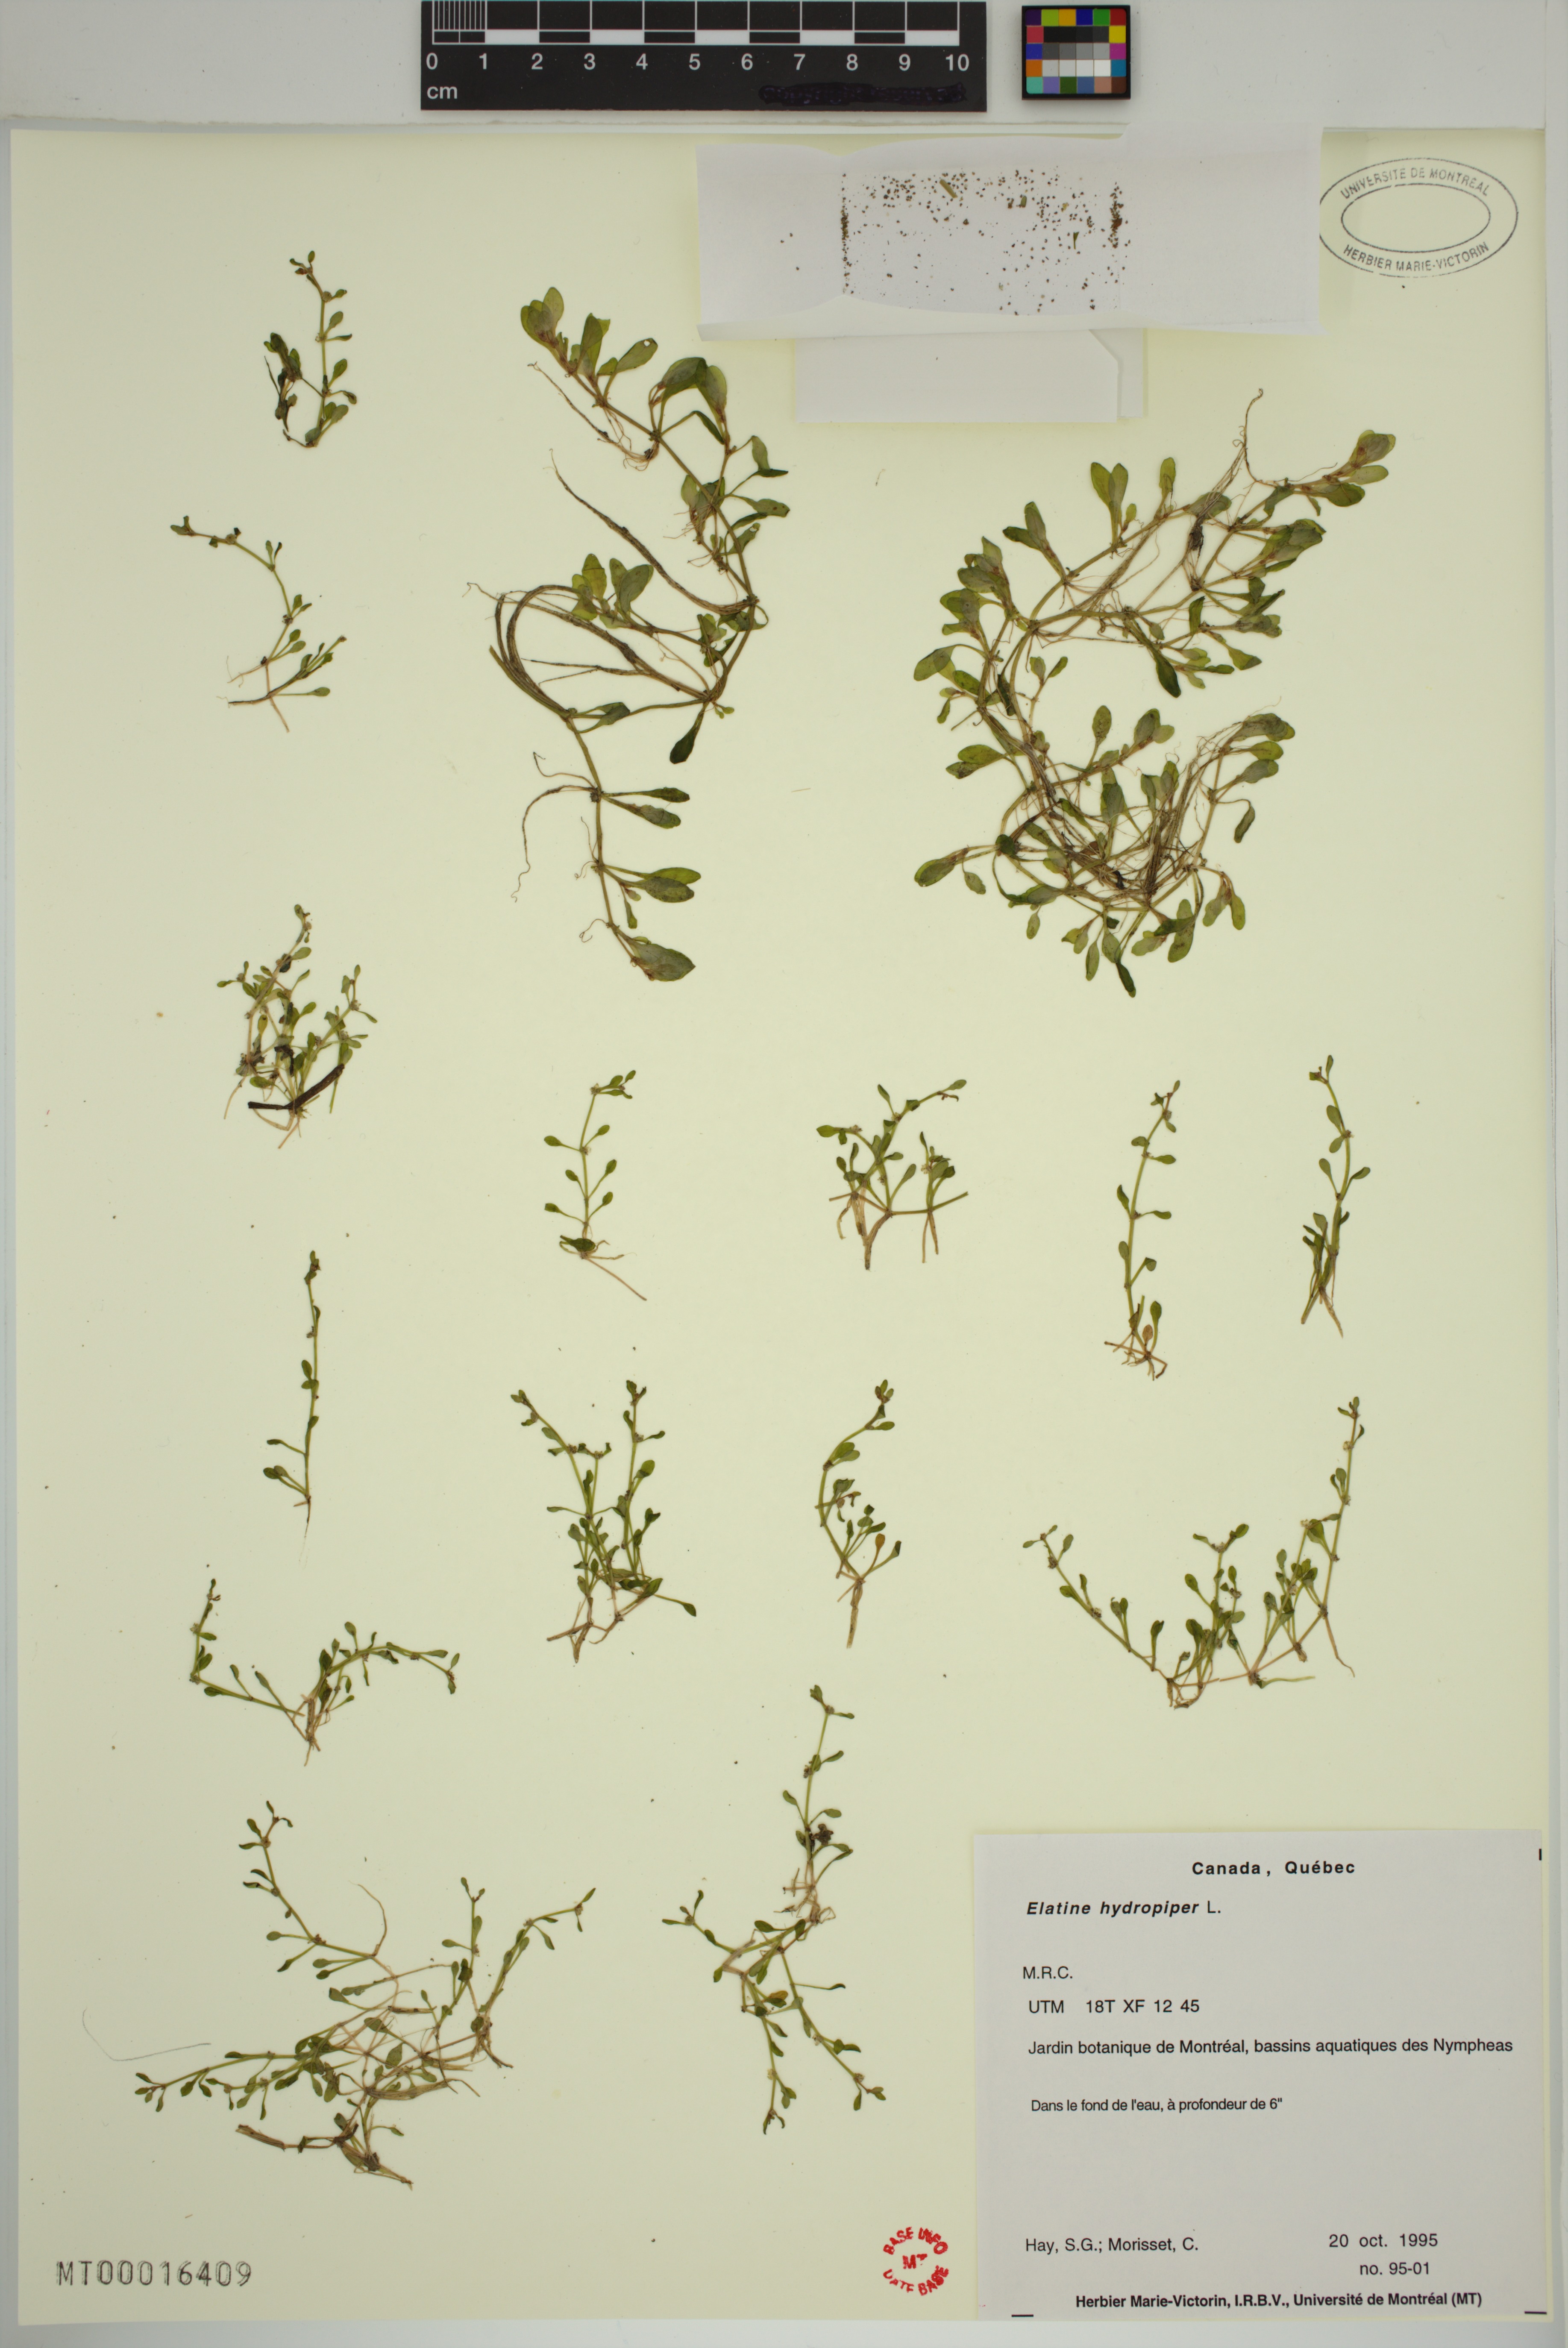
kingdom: Plantae
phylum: Tracheophyta
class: Magnoliopsida
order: Malpighiales
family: Elatinaceae
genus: Elatine
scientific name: Elatine macropoda
